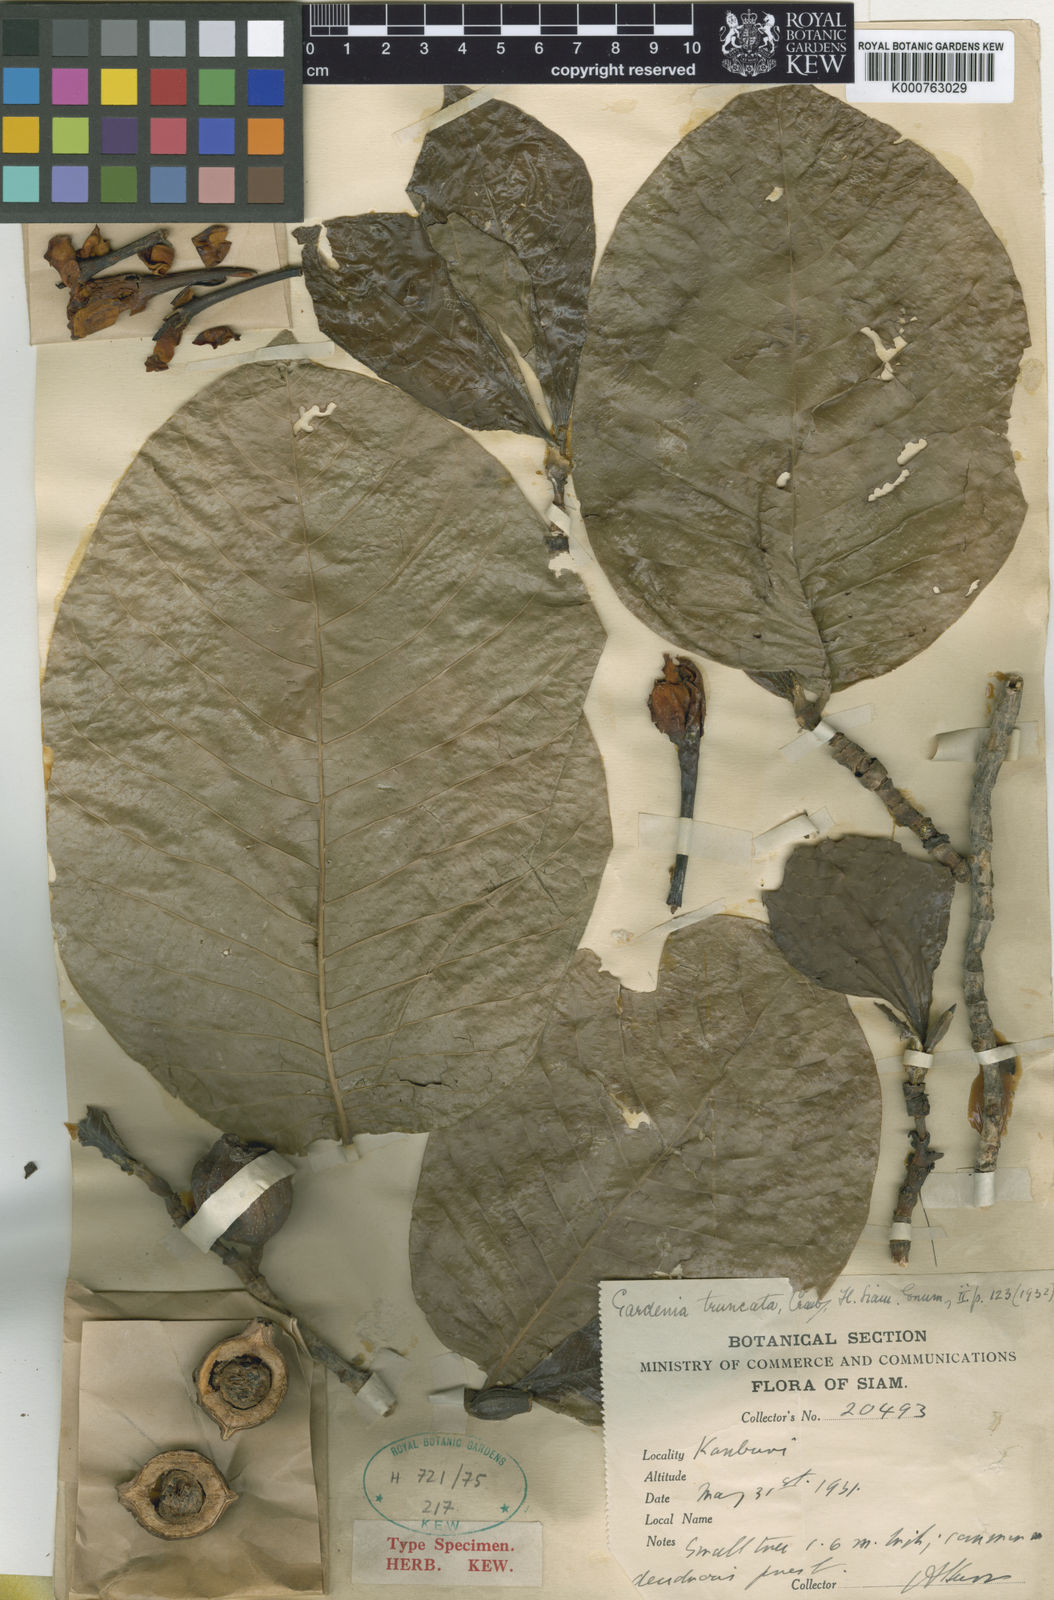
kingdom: Plantae
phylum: Tracheophyta
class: Magnoliopsida
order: Gentianales
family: Rubiaceae
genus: Gardenia
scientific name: Gardenia truncata
